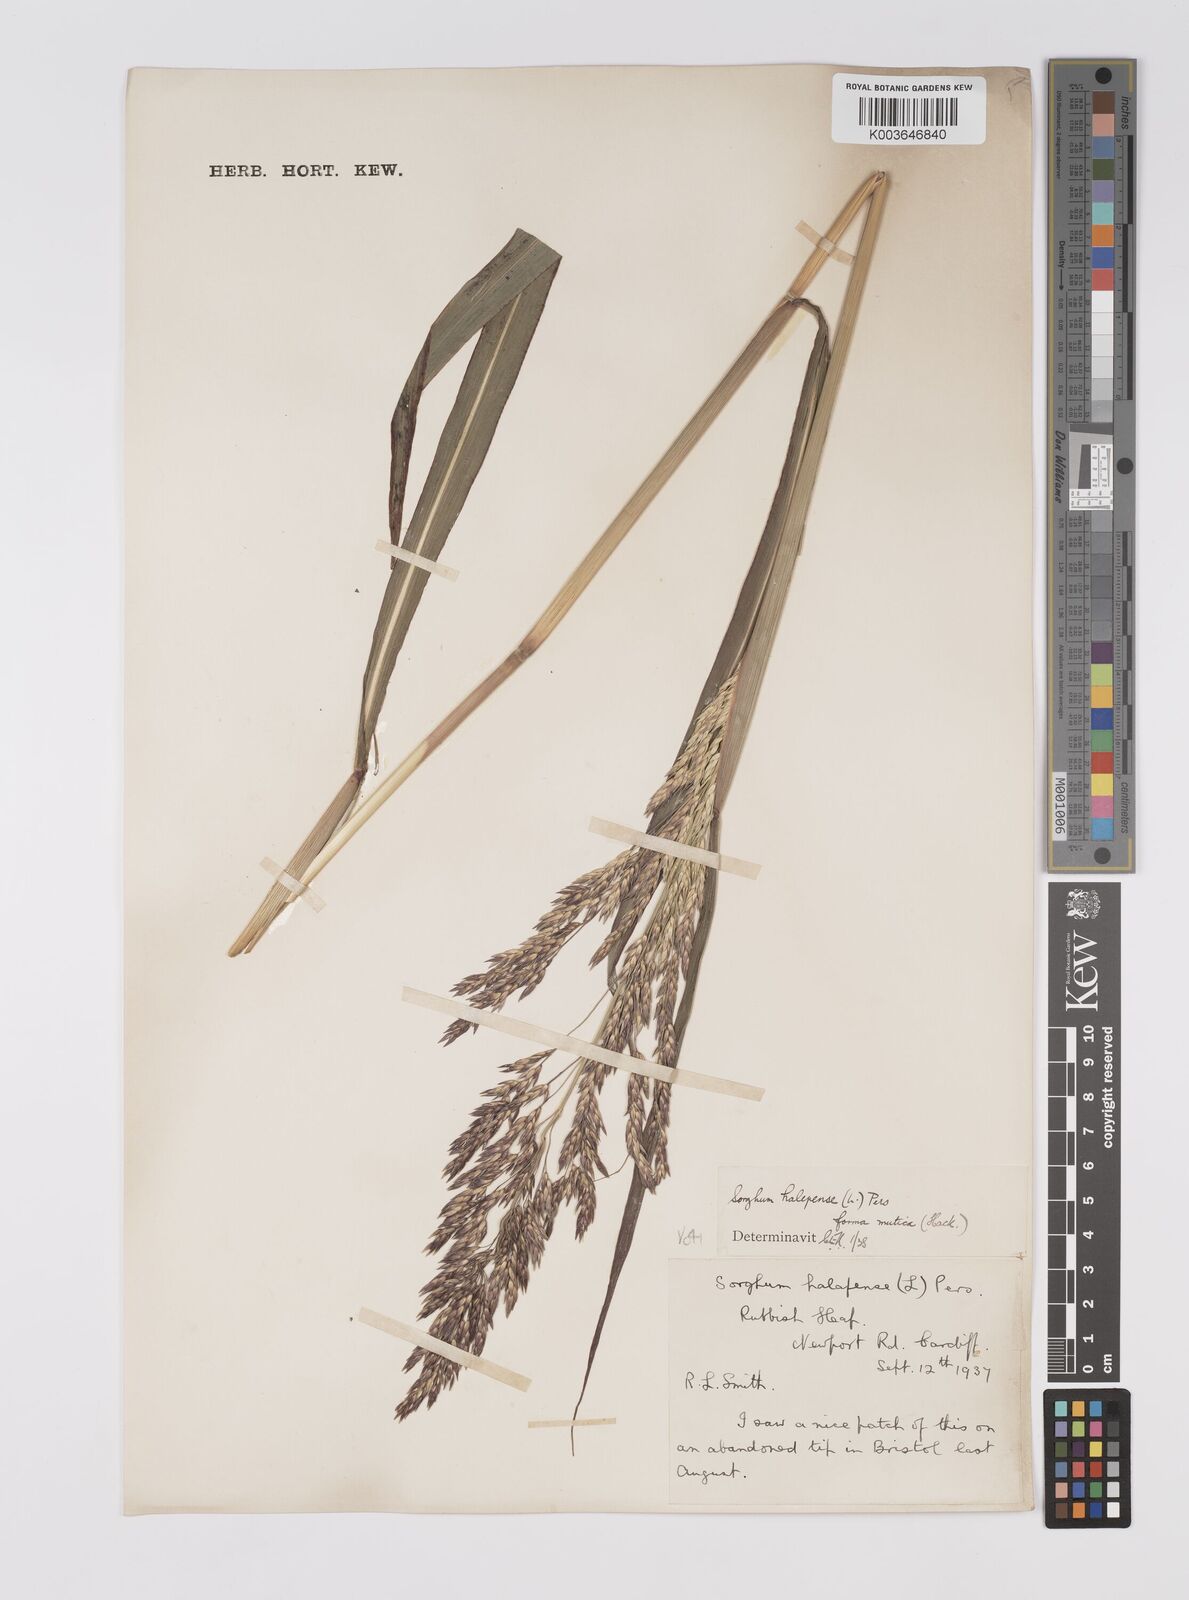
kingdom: Plantae
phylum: Tracheophyta
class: Liliopsida
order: Poales
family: Poaceae
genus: Sorghum
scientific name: Sorghum halepense
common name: Johnson-grass
